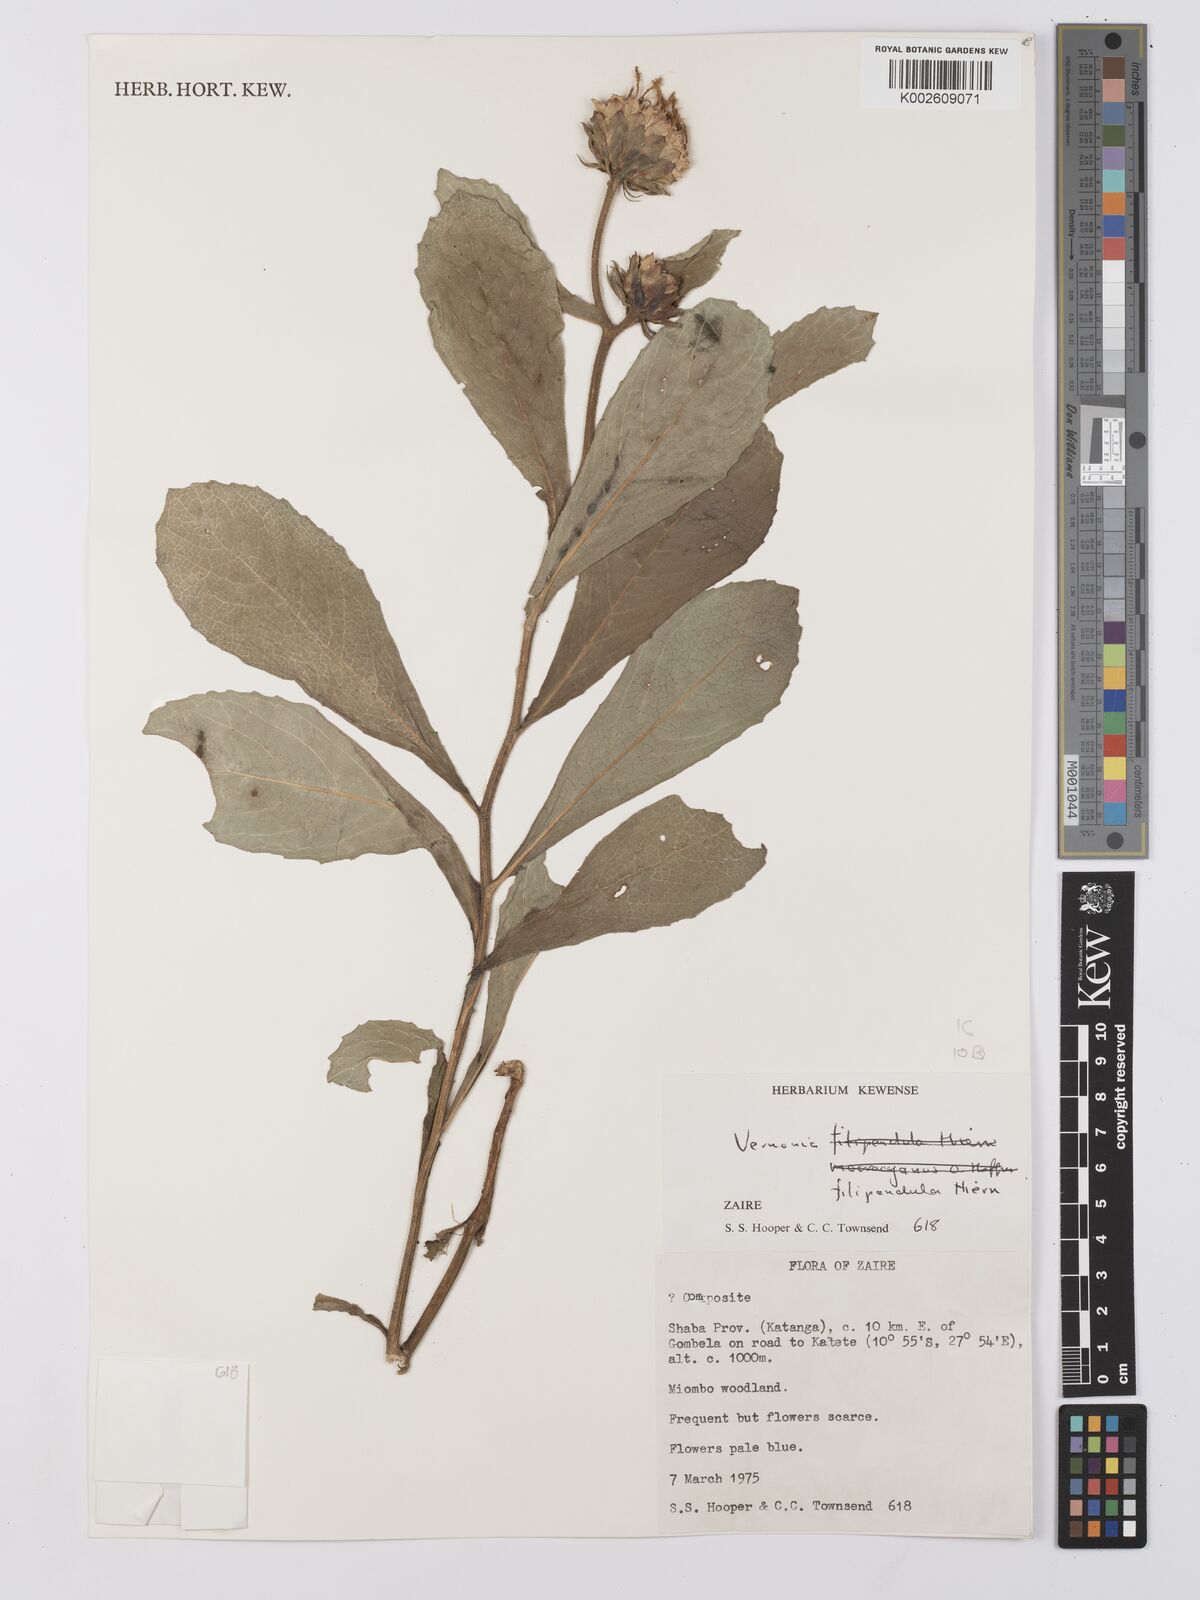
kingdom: Plantae
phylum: Tracheophyta
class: Magnoliopsida
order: Asterales
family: Asteraceae
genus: Baccharoides
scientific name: Baccharoides filipendula
